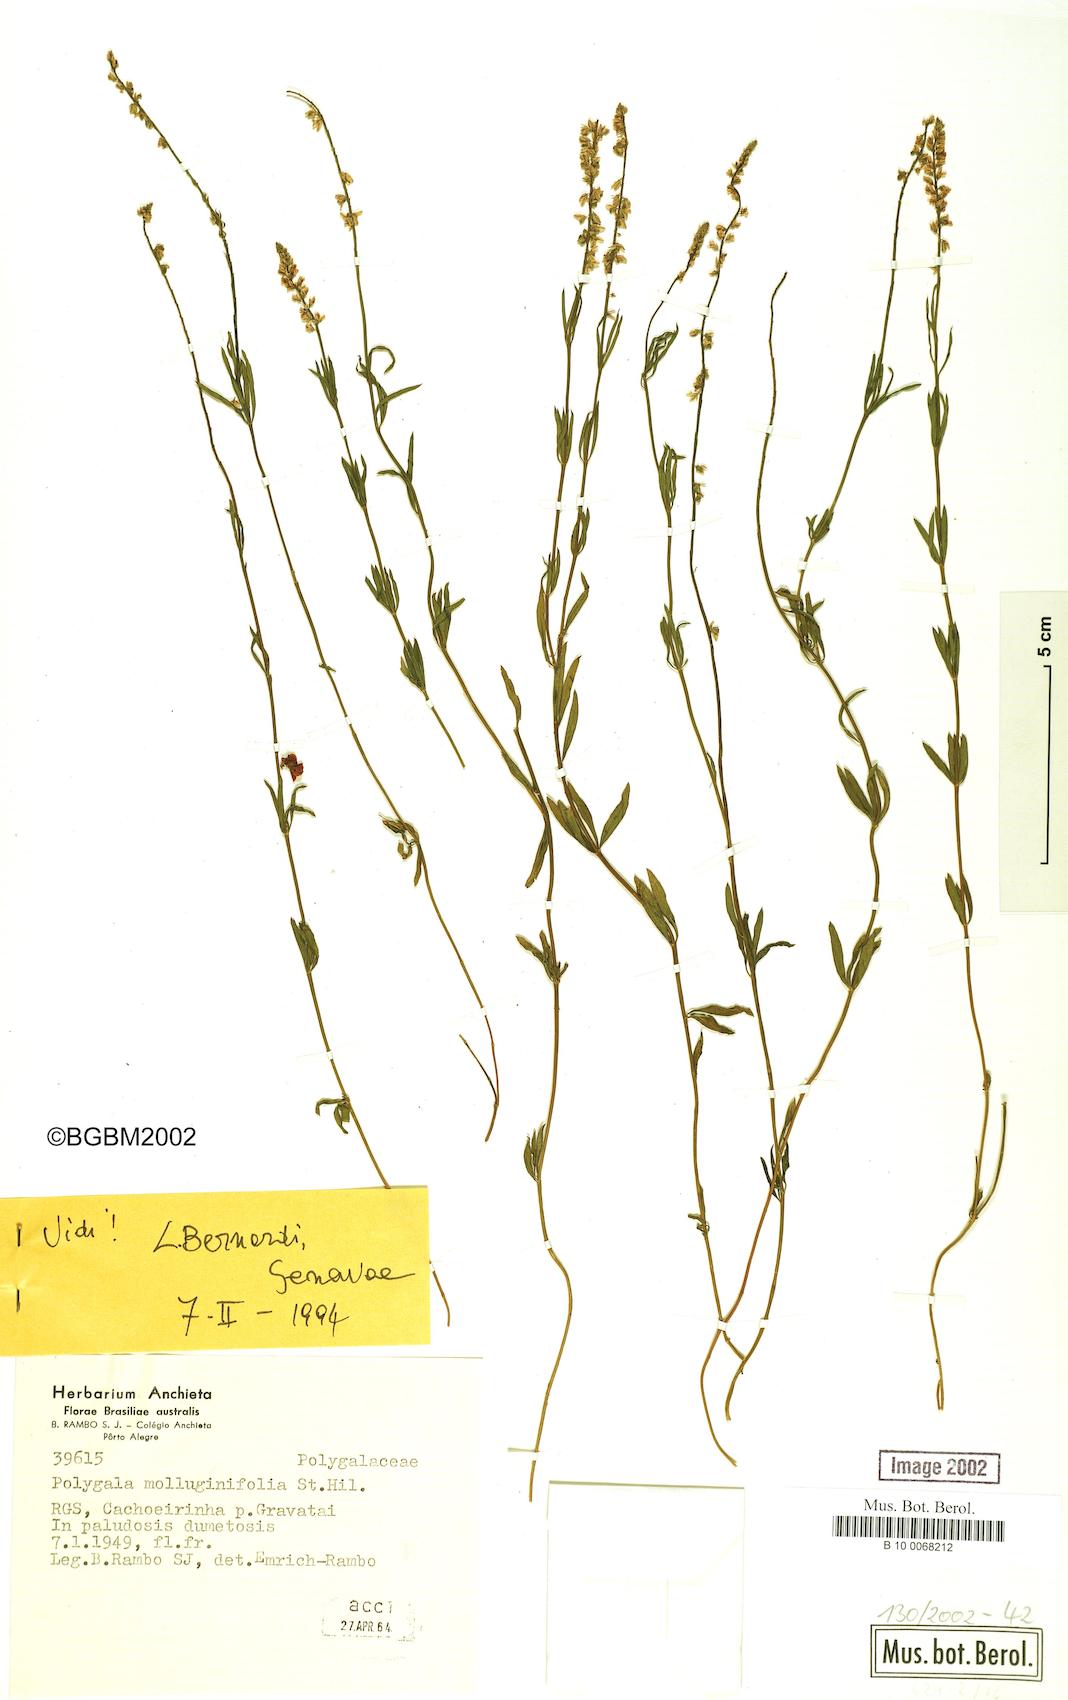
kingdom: Plantae
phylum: Tracheophyta
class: Magnoliopsida
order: Fabales
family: Polygalaceae
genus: Polygala
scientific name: Polygala molluginifolia
